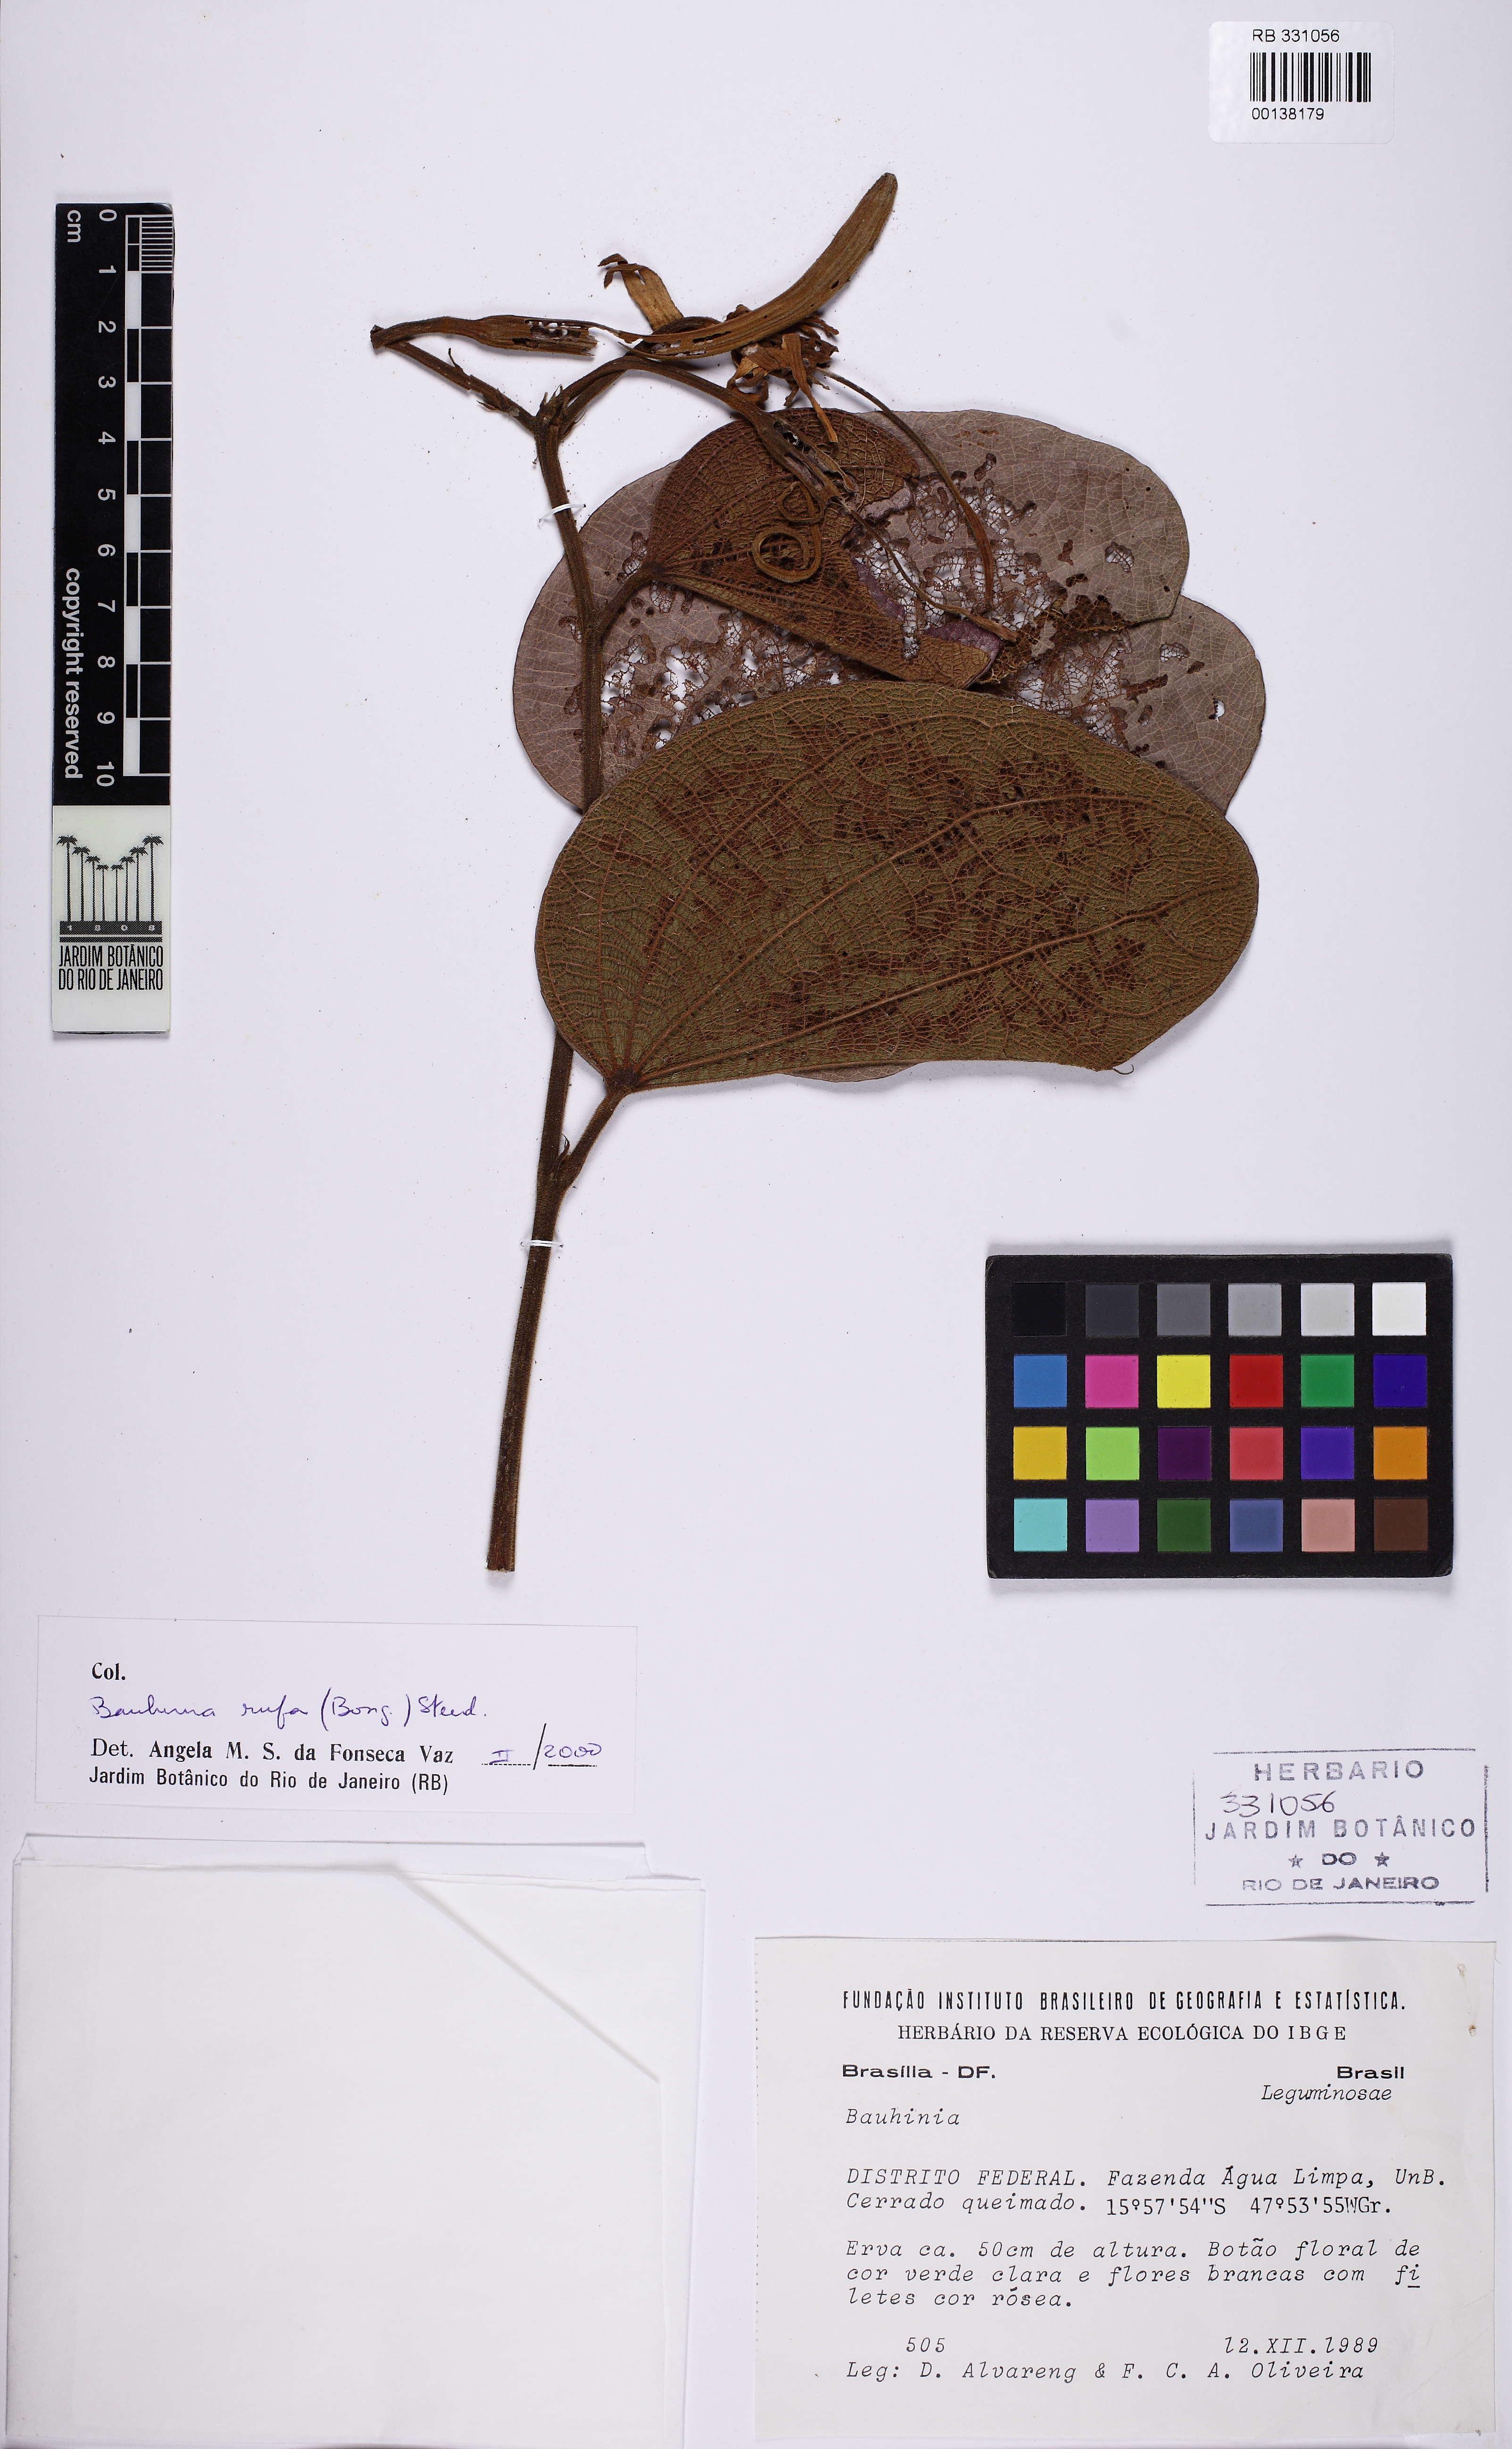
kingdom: Plantae
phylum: Tracheophyta
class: Magnoliopsida
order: Fabales
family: Fabaceae
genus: Bauhinia
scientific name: Bauhinia rufa
